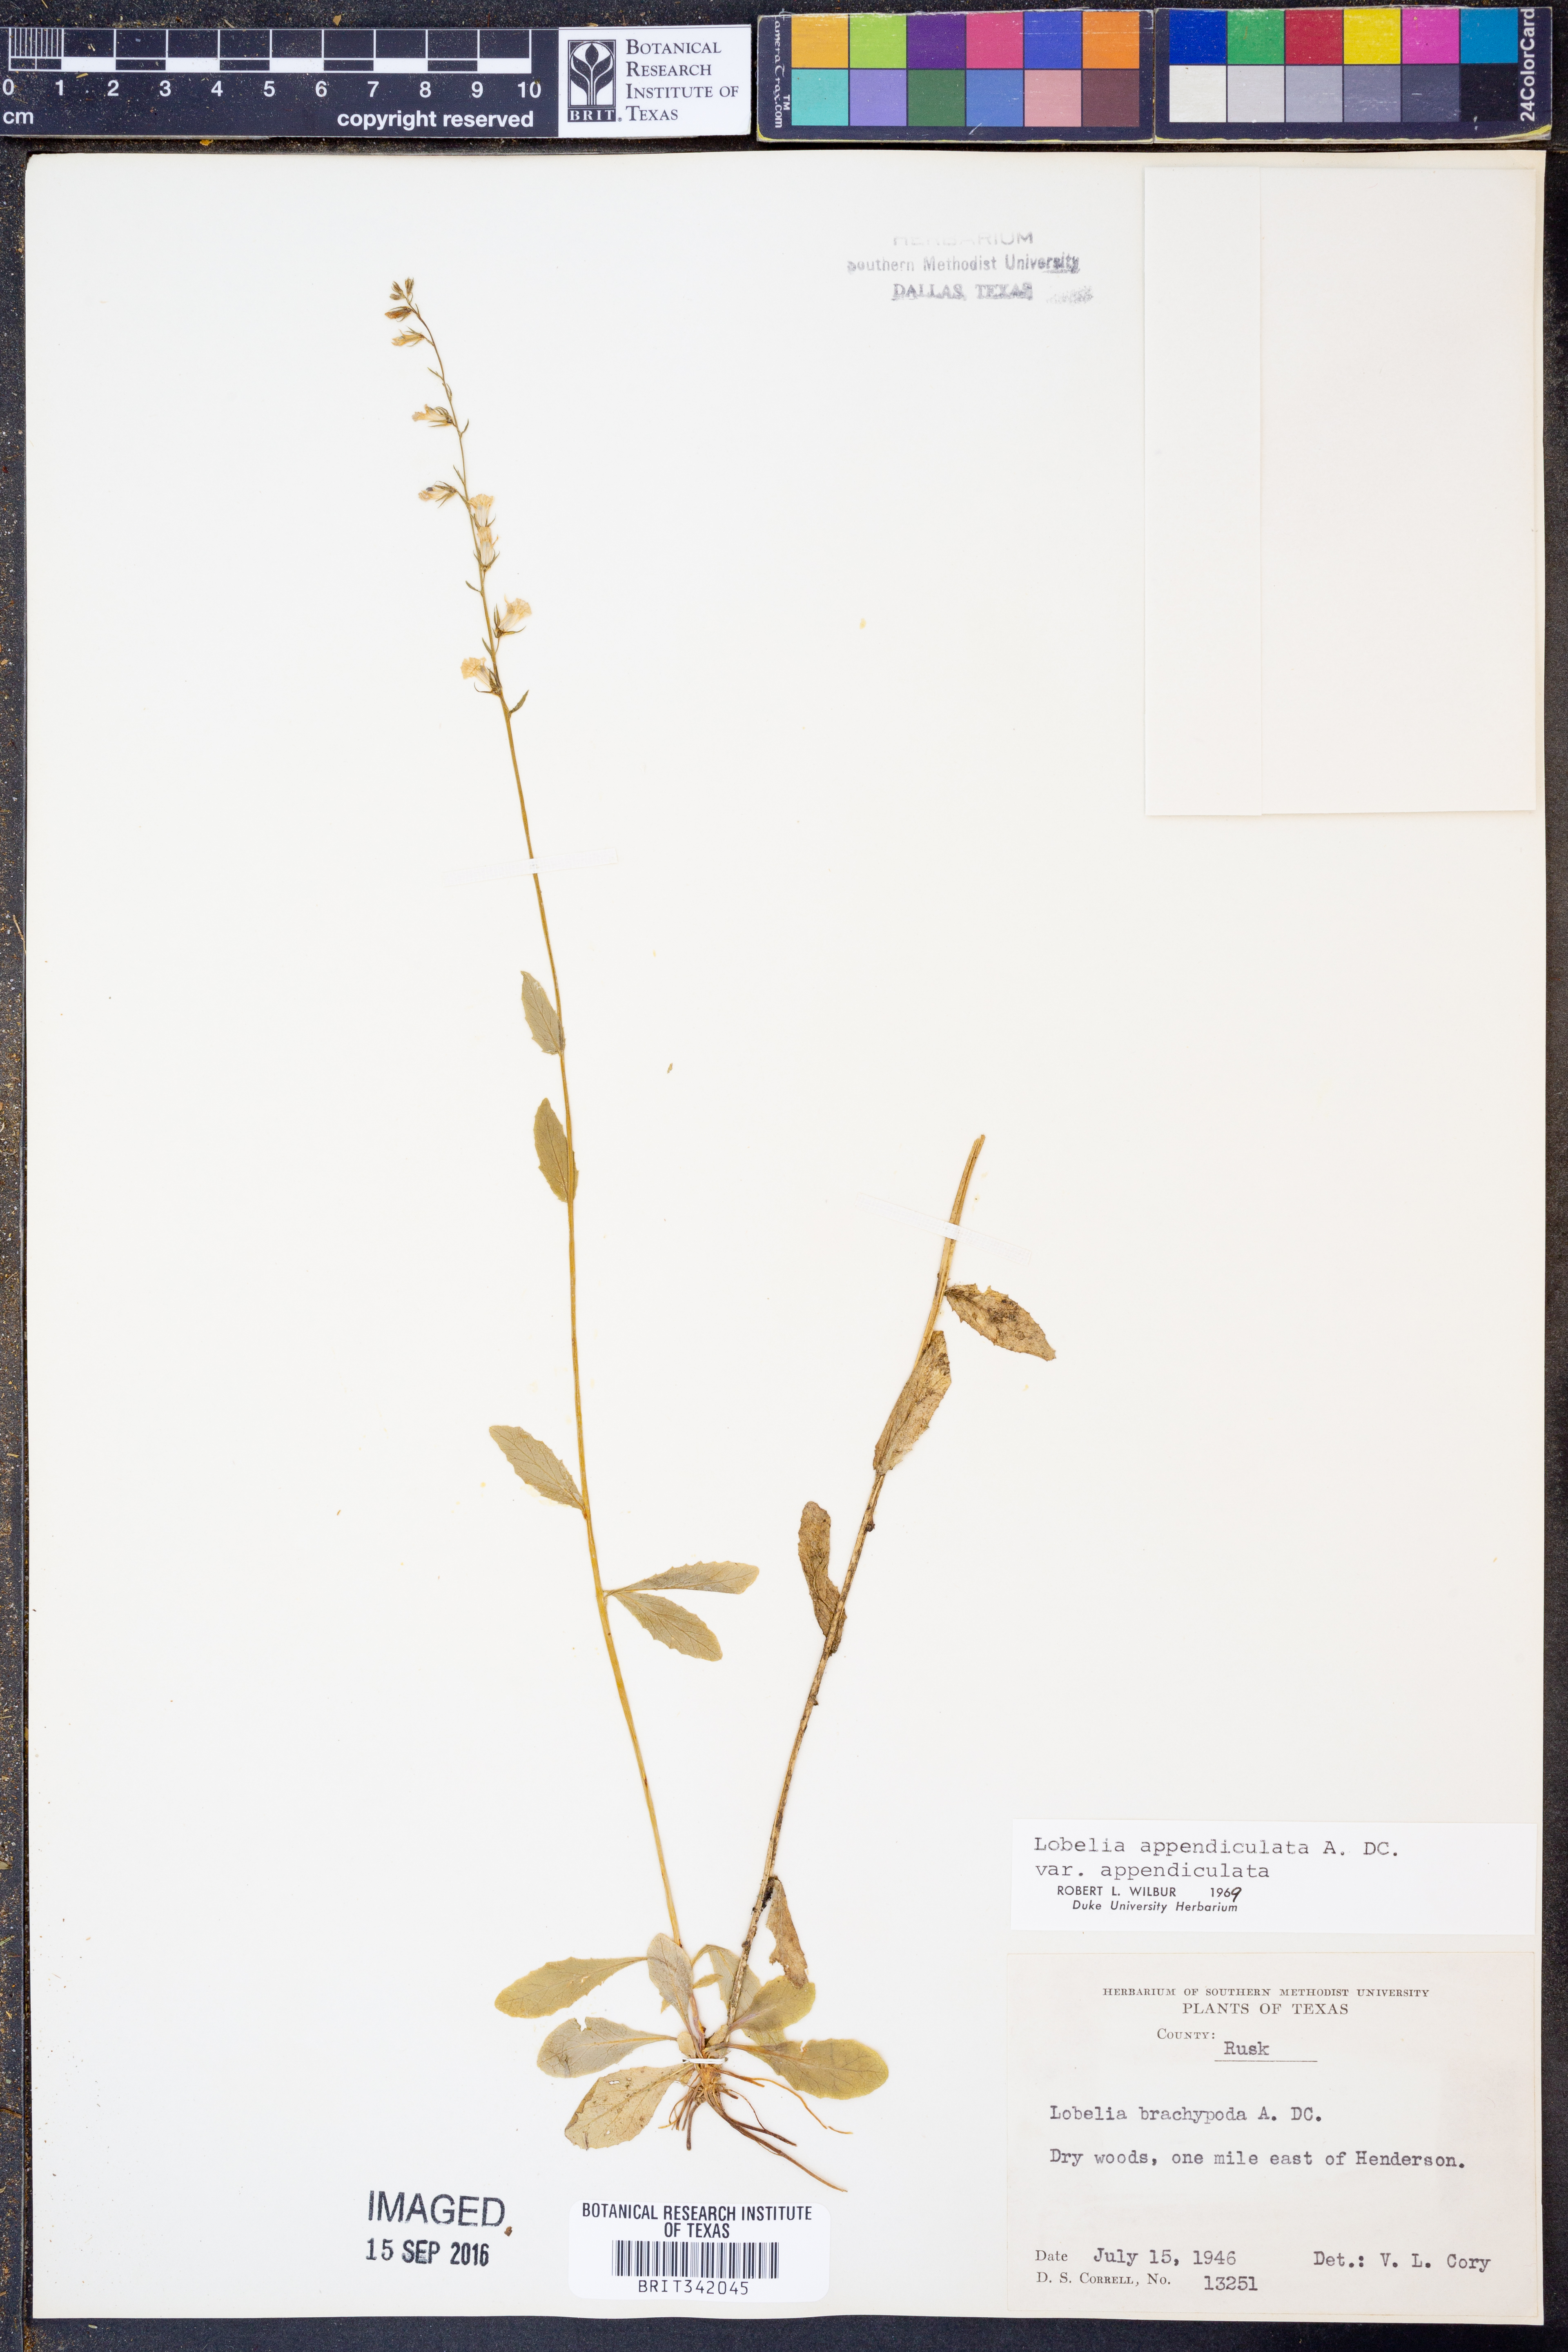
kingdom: Plantae
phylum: Tracheophyta
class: Magnoliopsida
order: Asterales
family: Campanulaceae
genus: Lobelia
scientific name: Lobelia appendiculata
